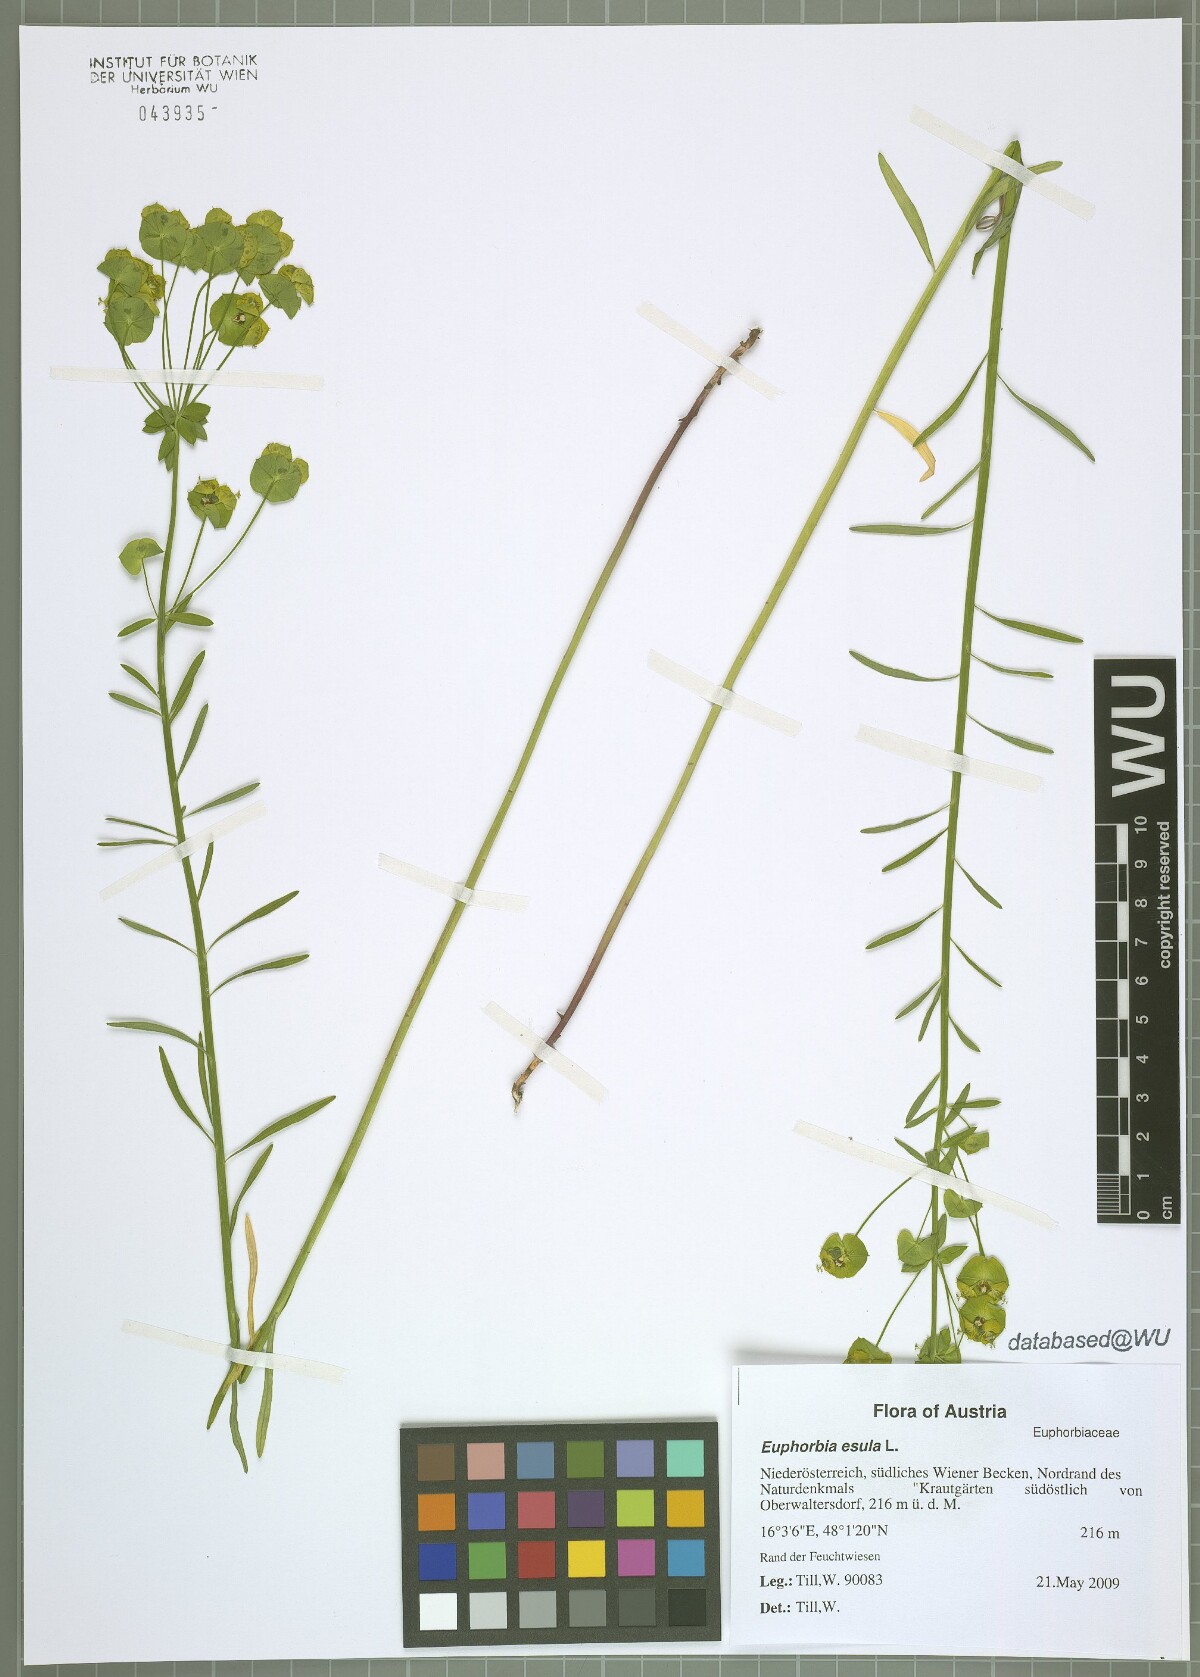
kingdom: Plantae
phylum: Tracheophyta
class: Magnoliopsida
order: Malpighiales
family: Euphorbiaceae
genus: Euphorbia
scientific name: Euphorbia esula
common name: Leafy spurge
